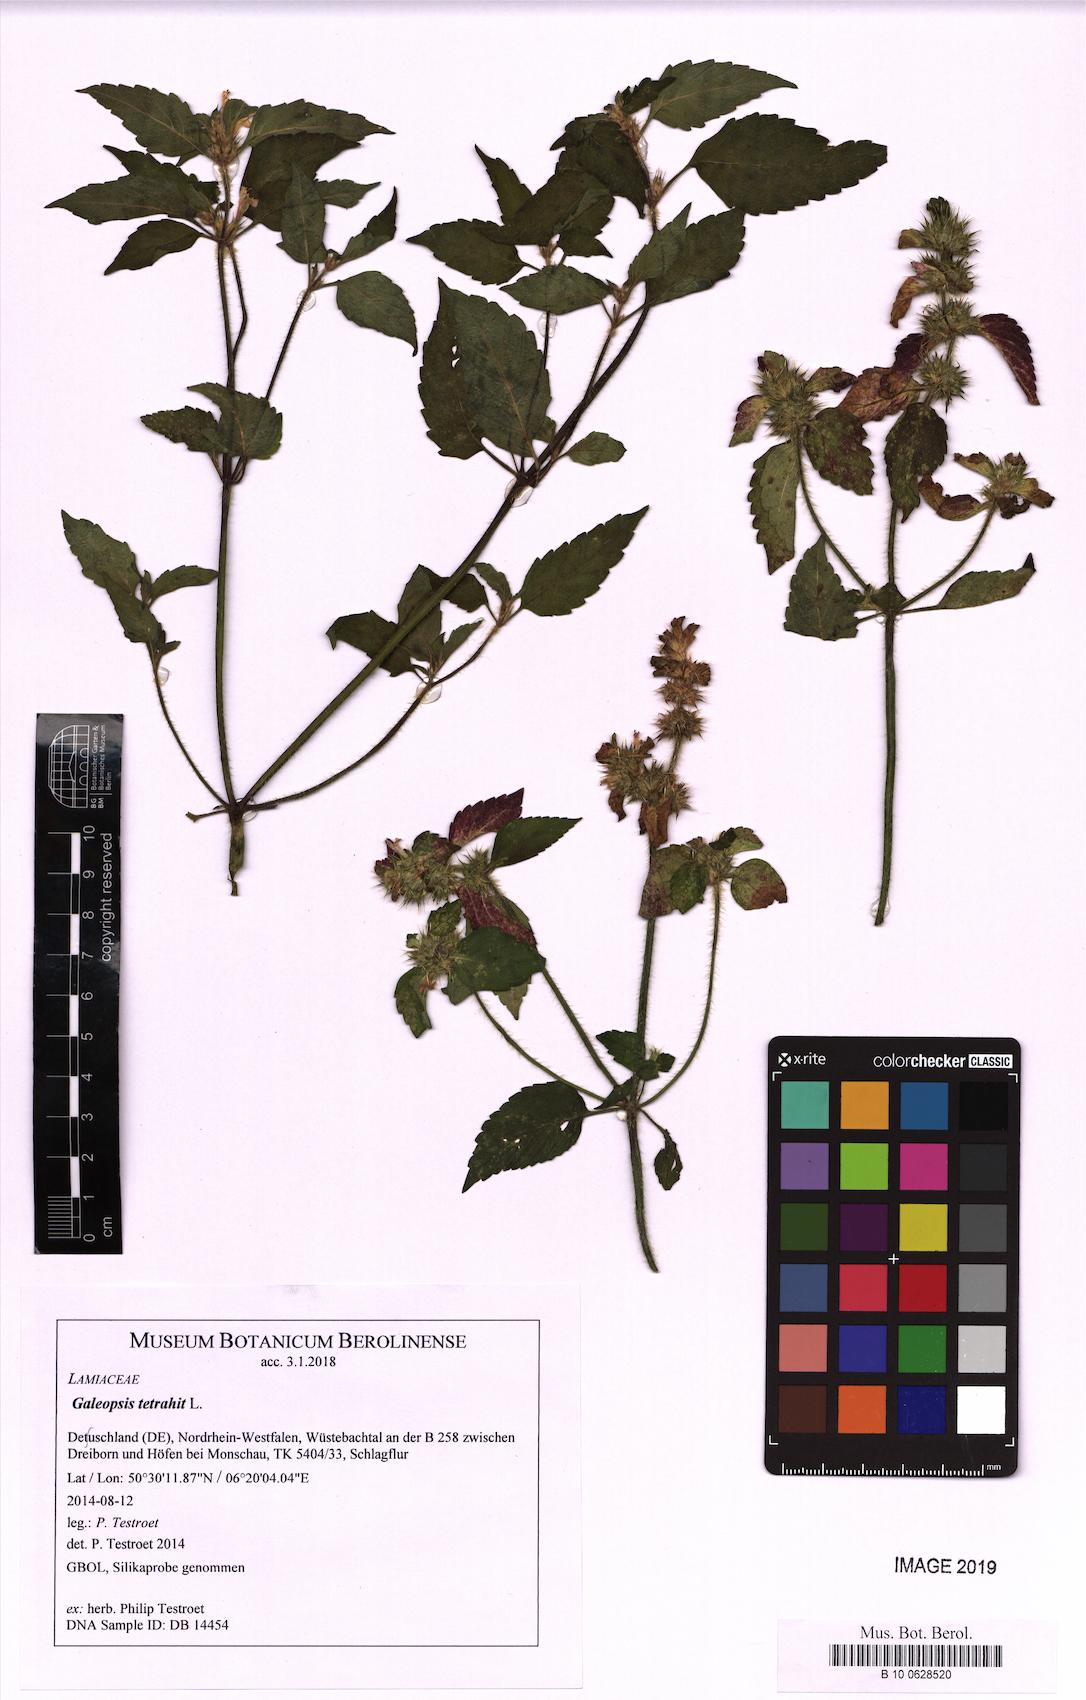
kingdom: Plantae
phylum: Tracheophyta
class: Magnoliopsida
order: Lamiales
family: Lamiaceae
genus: Galeopsis
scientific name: Galeopsis tetrahit
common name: Common hemp-nettle
